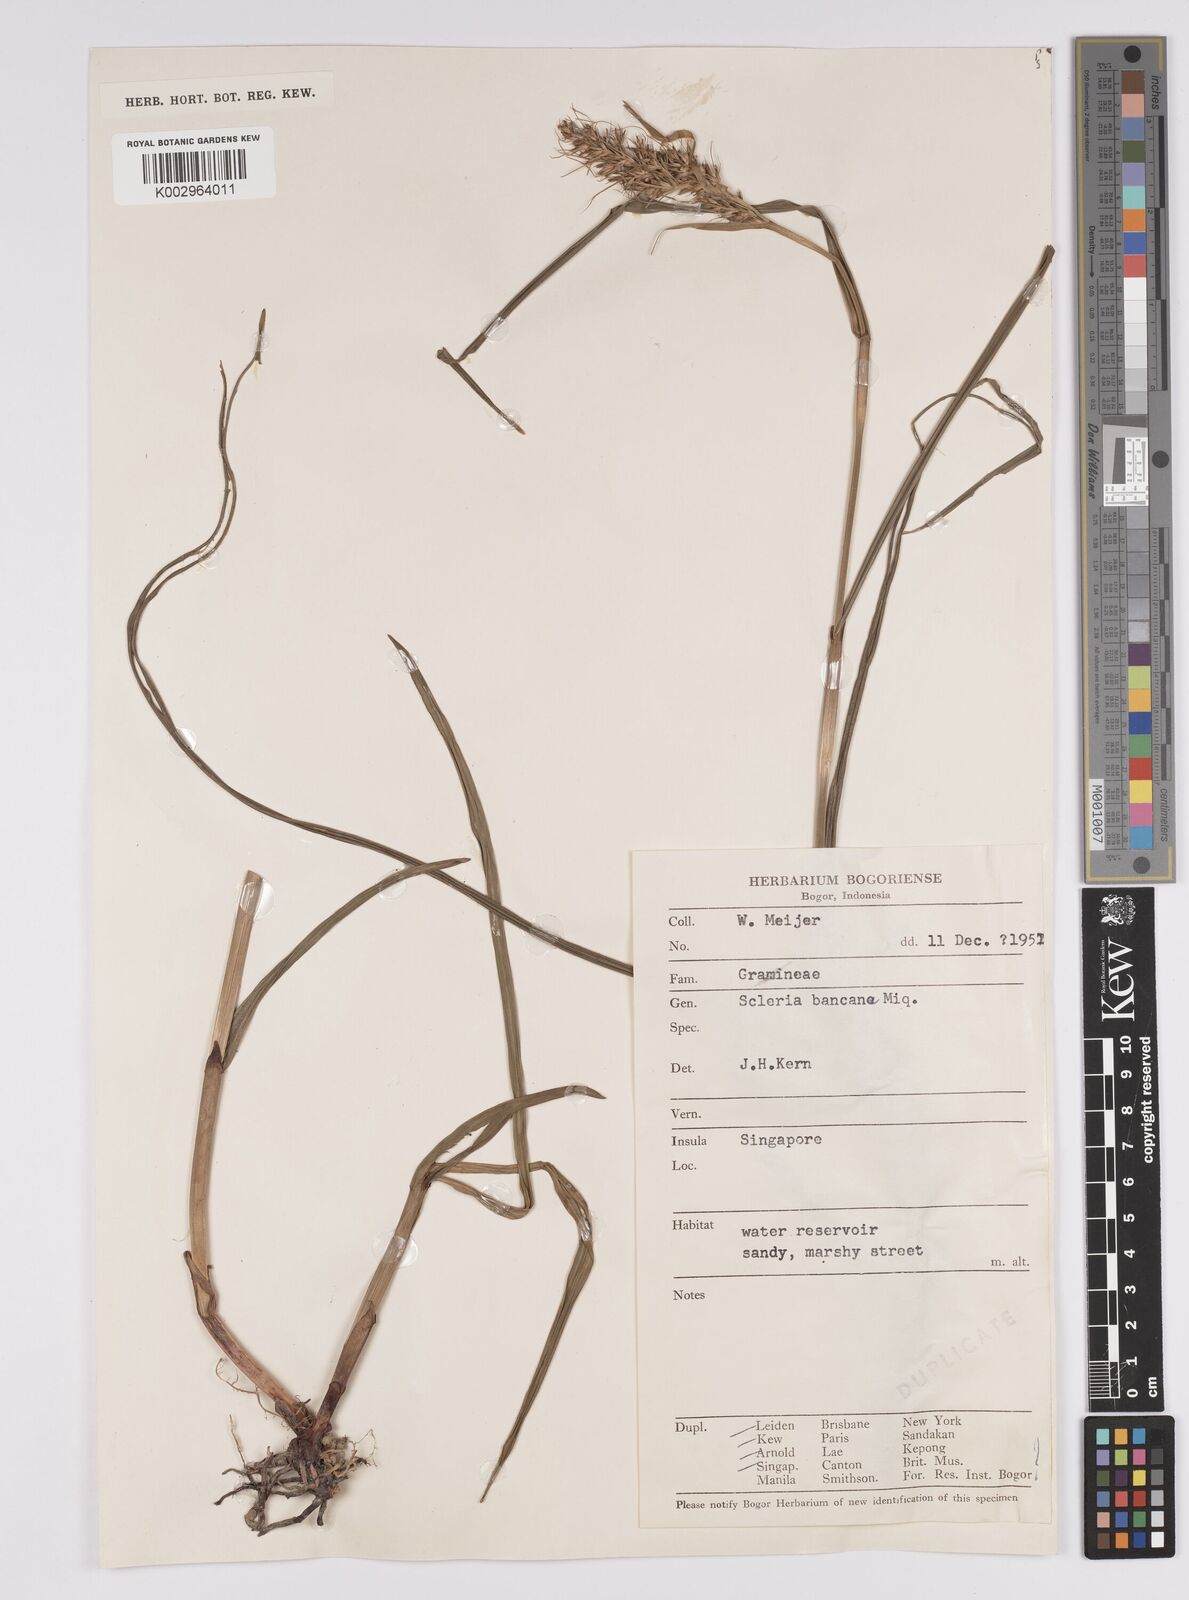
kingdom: Plantae
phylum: Tracheophyta
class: Liliopsida
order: Poales
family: Cyperaceae
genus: Scleria
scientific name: Scleria ciliaris
